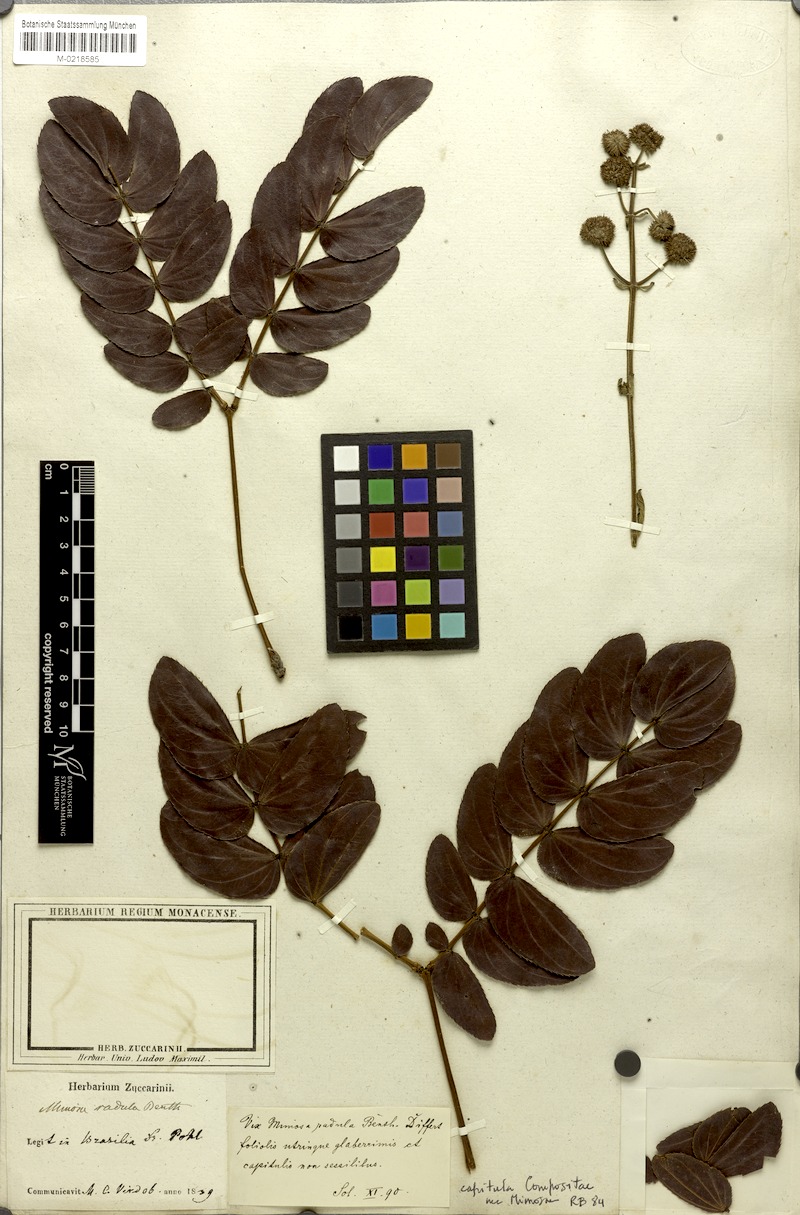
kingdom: Plantae
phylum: Tracheophyta
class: Magnoliopsida
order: Fabales
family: Fabaceae
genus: Mimosa
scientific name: Mimosa radula
